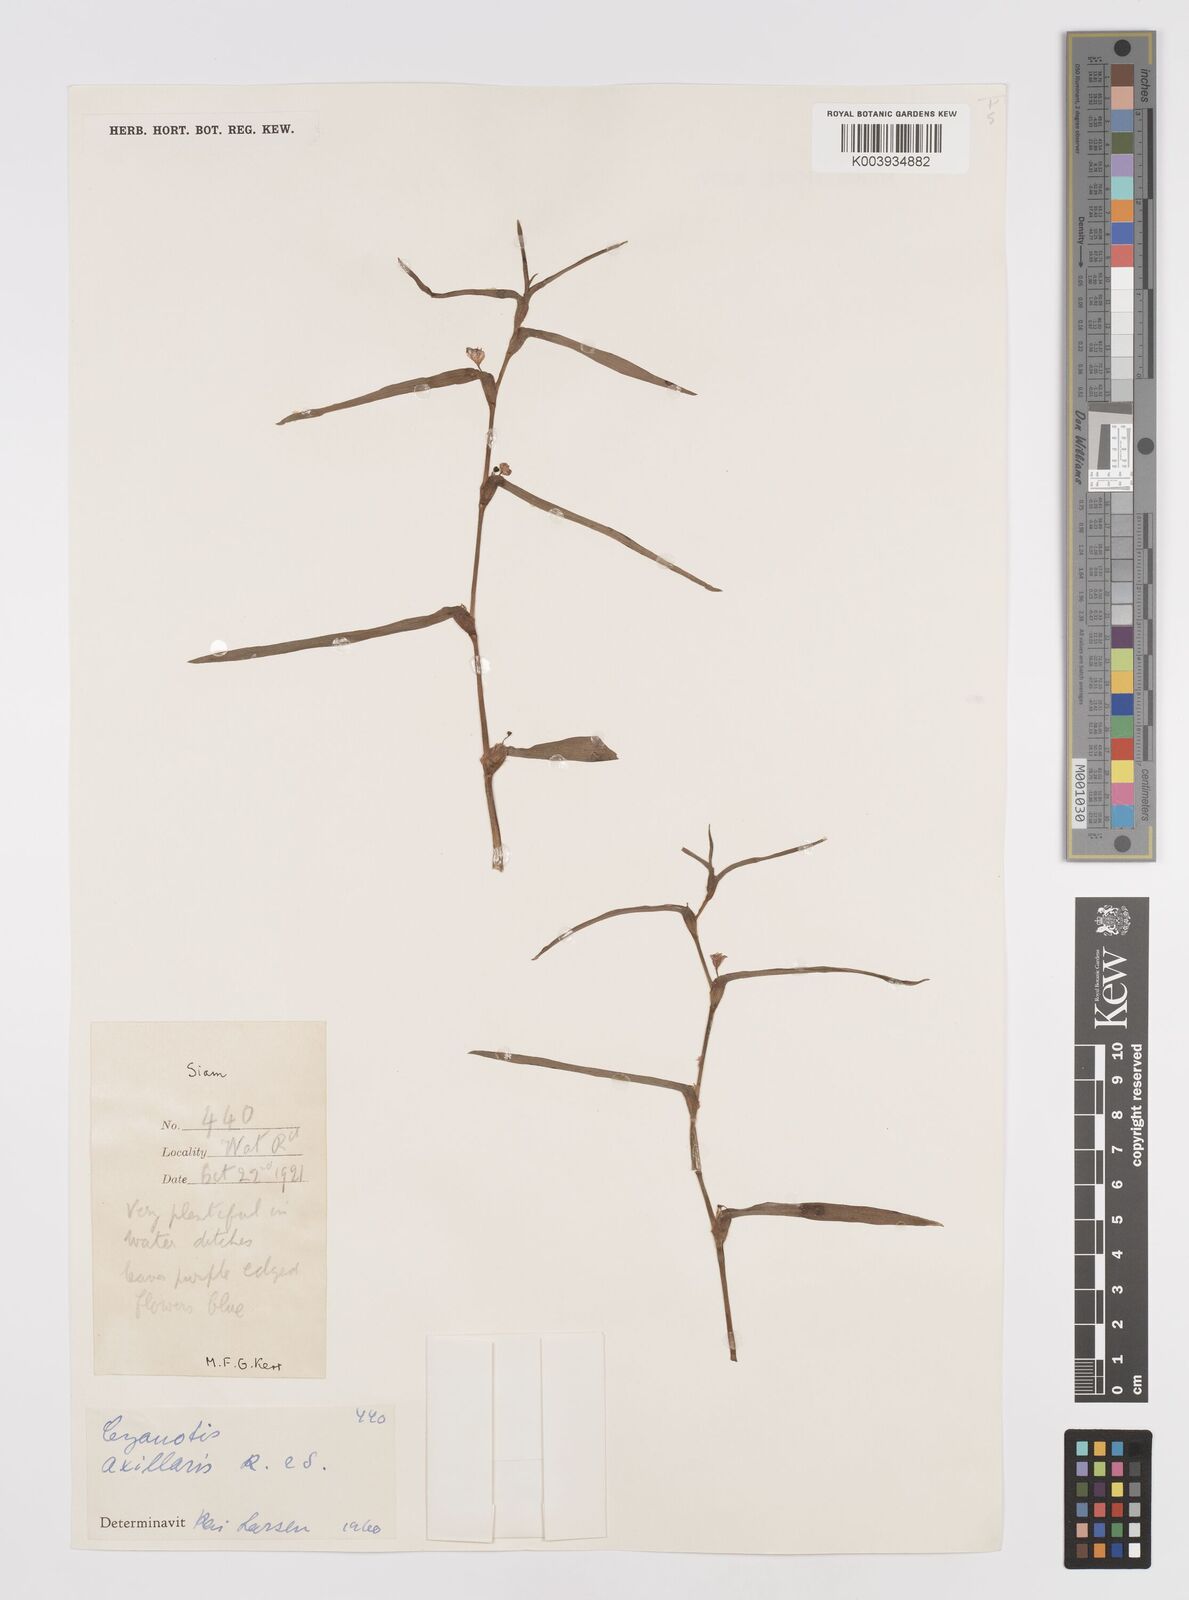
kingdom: Plantae
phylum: Tracheophyta
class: Liliopsida
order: Commelinales
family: Commelinaceae
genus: Cyanotis
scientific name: Cyanotis axillaris
